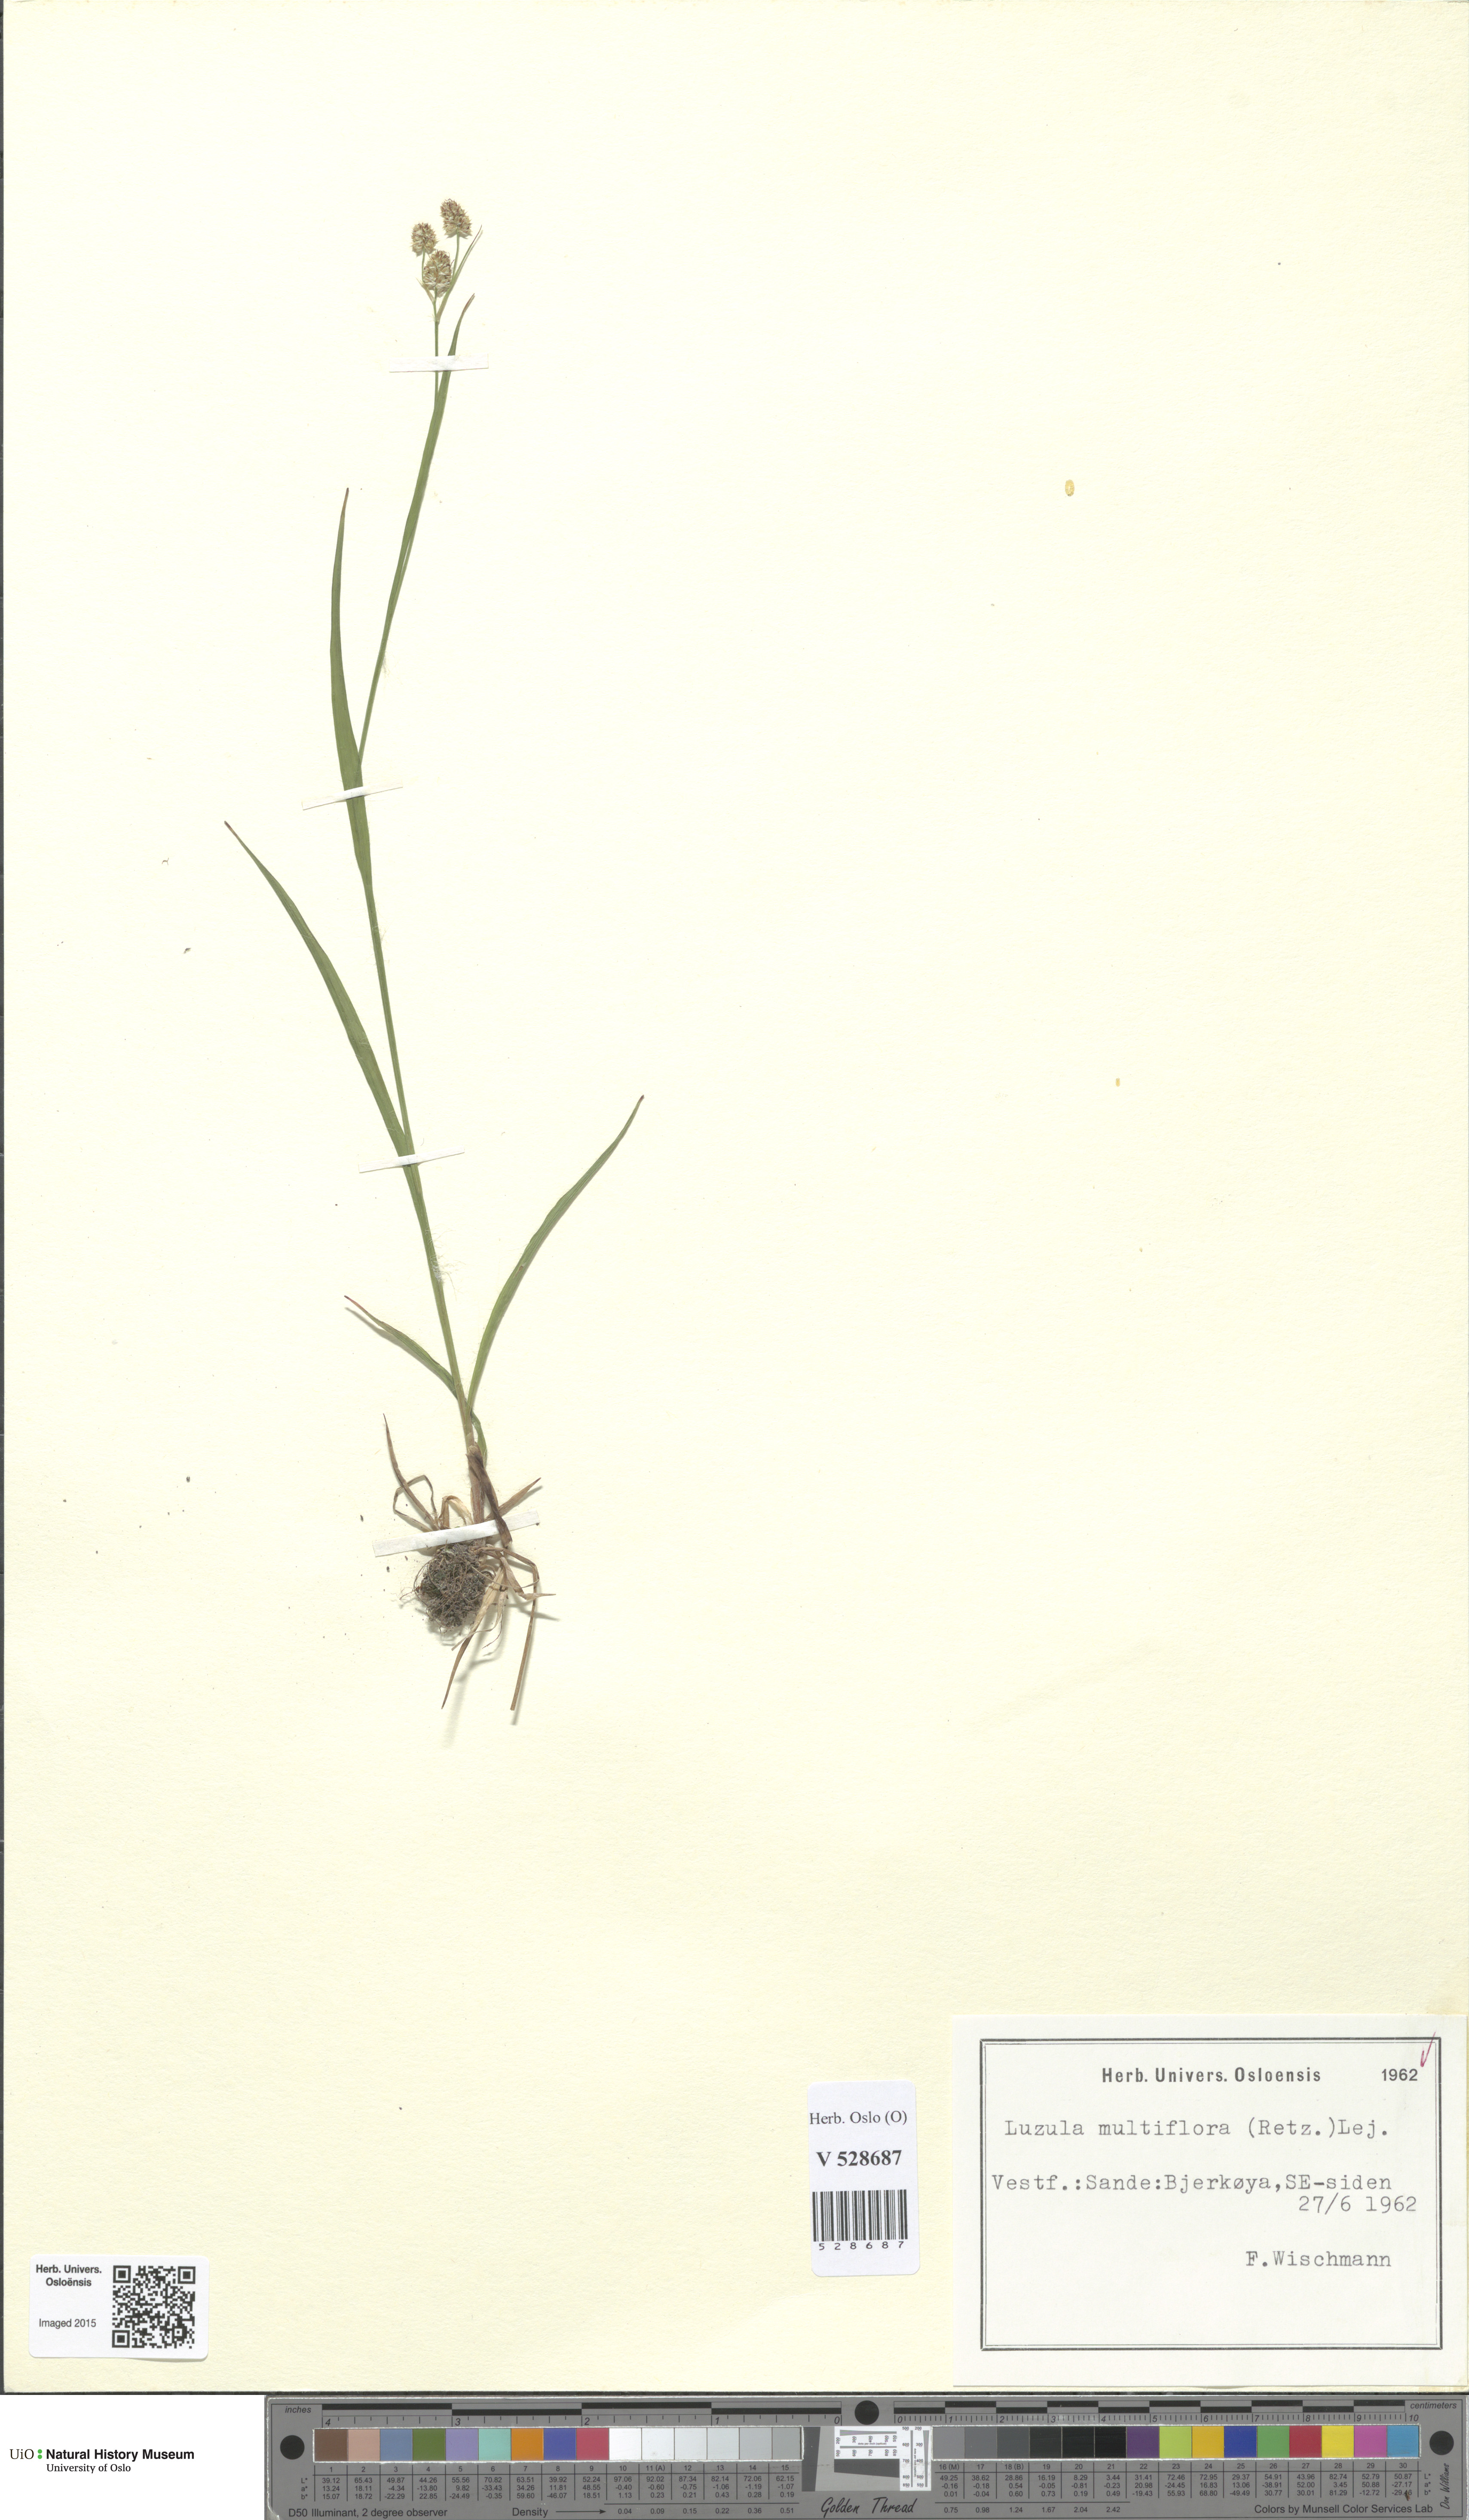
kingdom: Plantae
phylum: Tracheophyta
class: Liliopsida
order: Poales
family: Juncaceae
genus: Luzula
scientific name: Luzula multiflora
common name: Heath wood-rush
